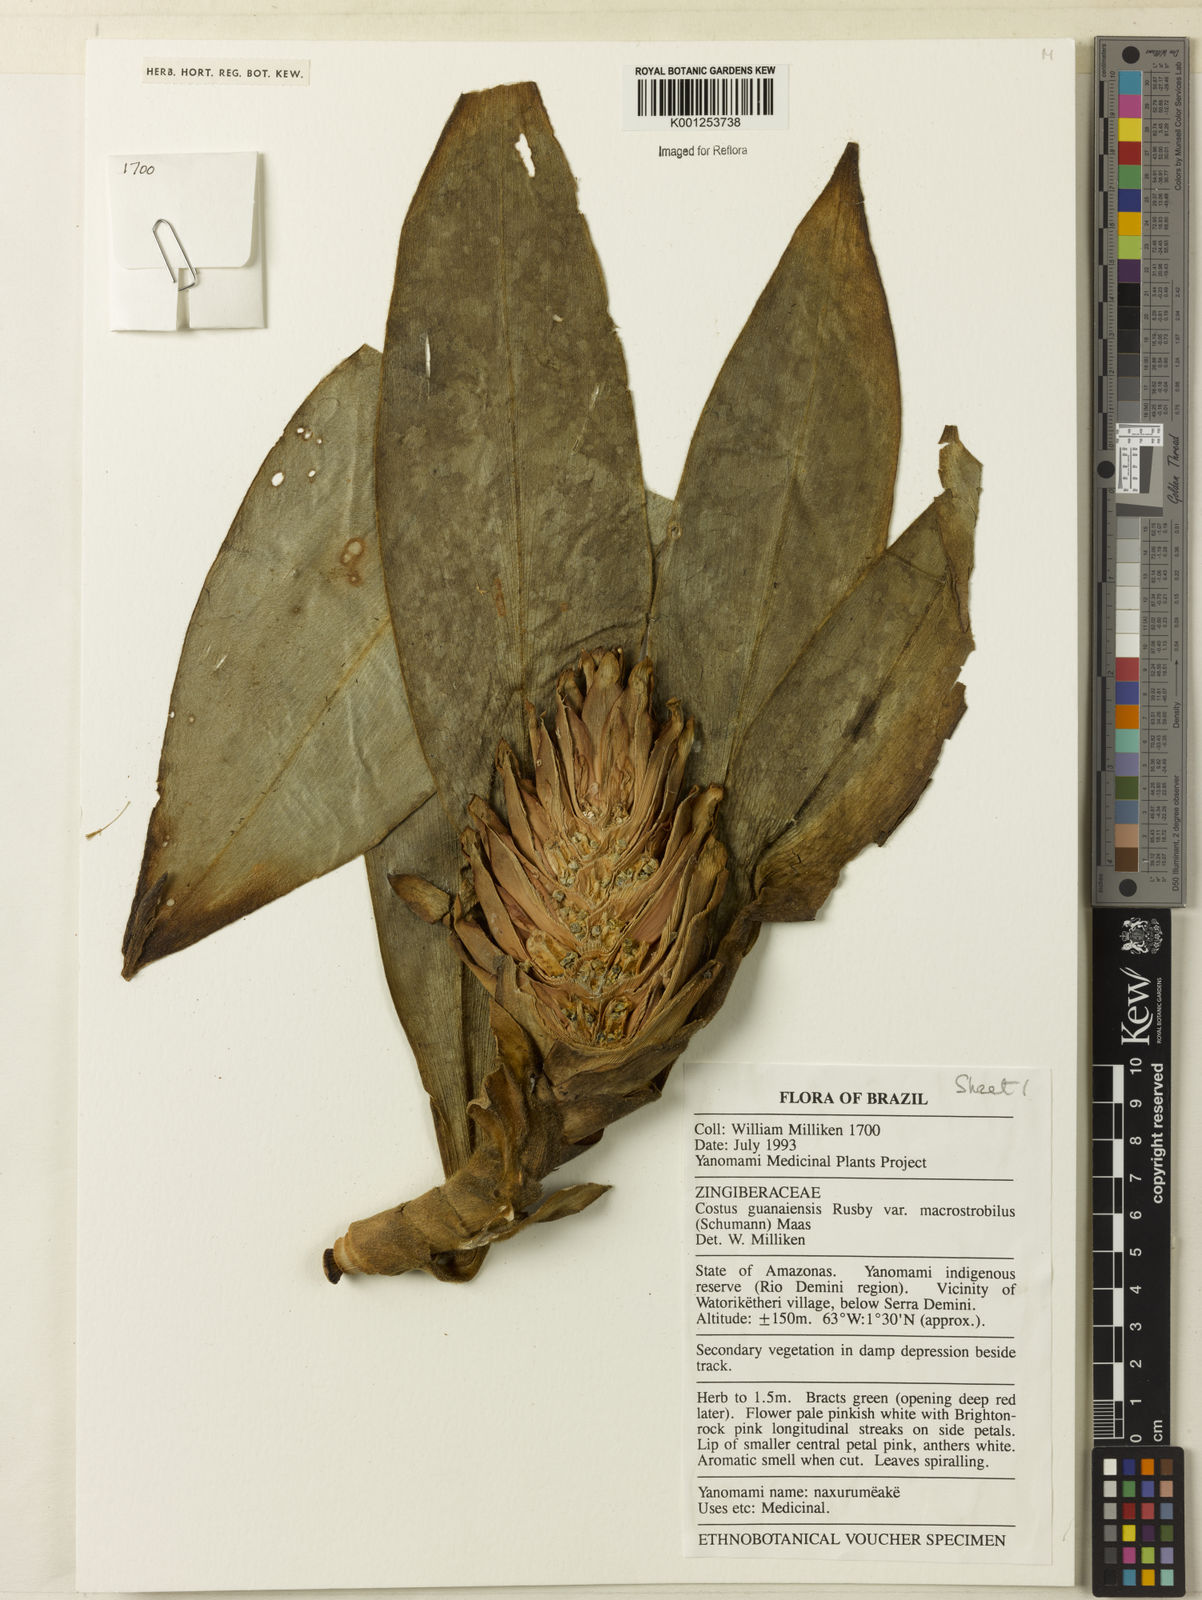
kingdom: Plantae
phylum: Tracheophyta
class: Liliopsida
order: Zingiberales
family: Costaceae
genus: Costus
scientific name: Costus guanaiensis
